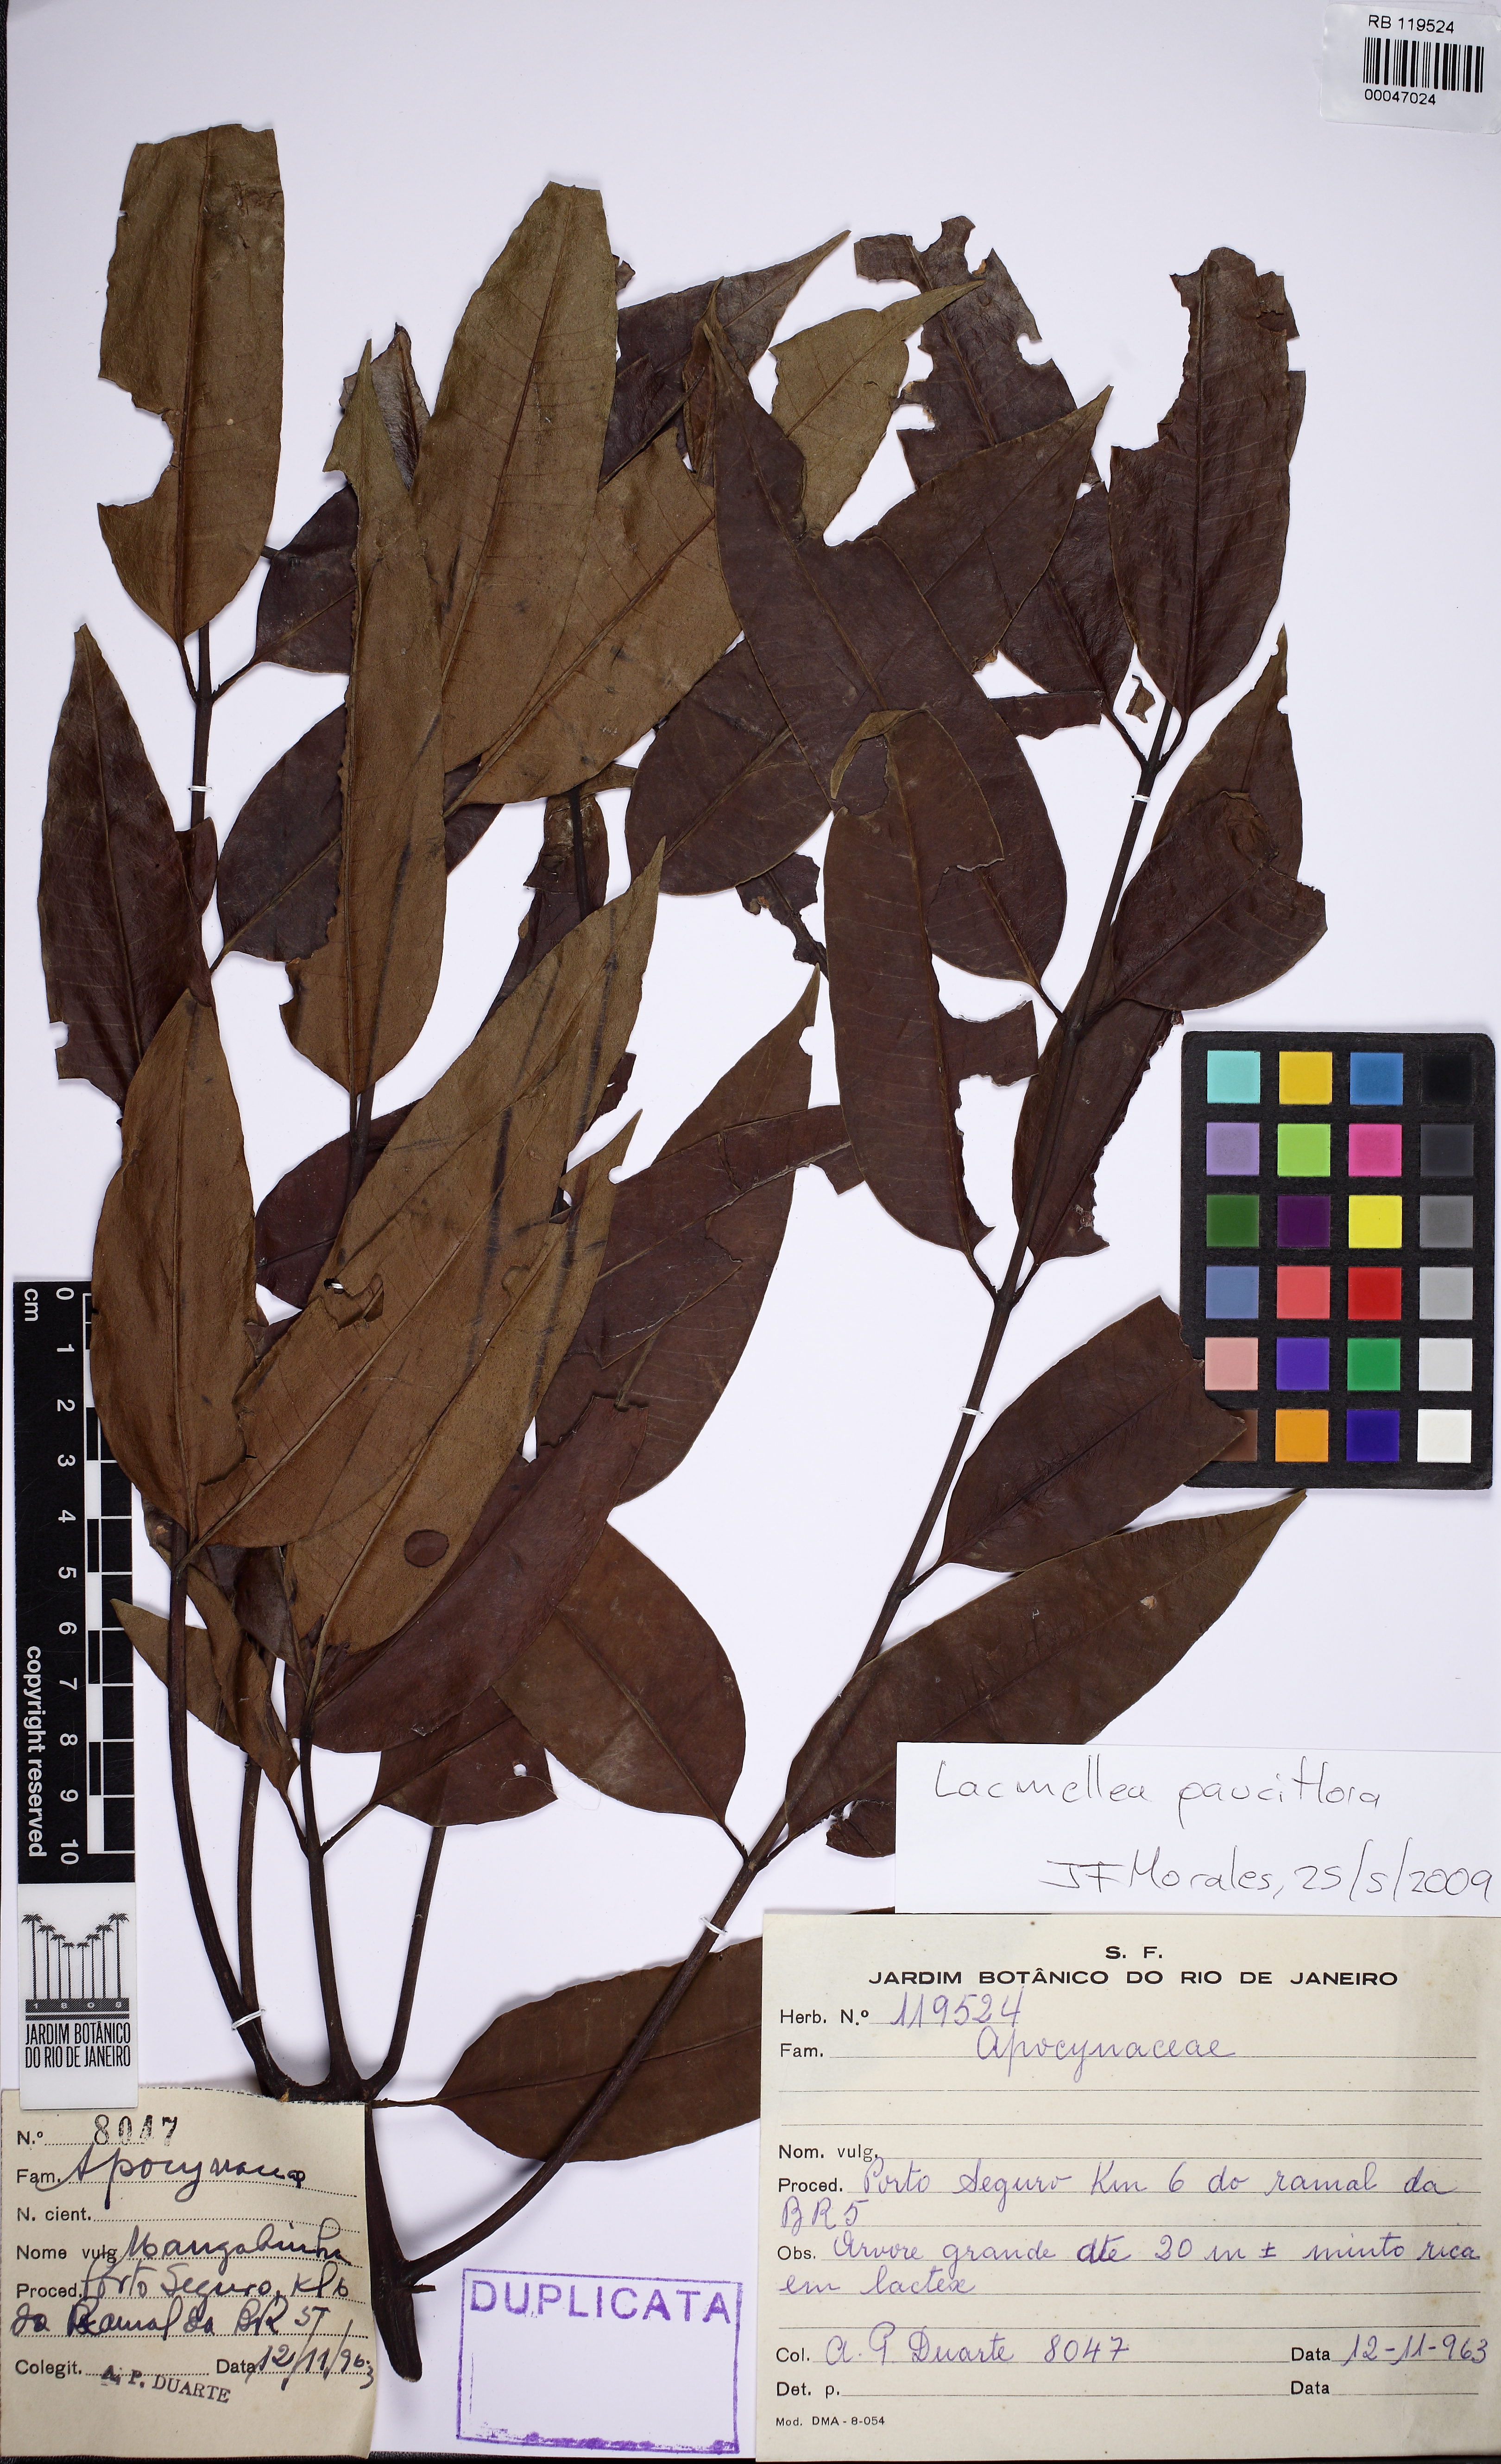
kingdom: Plantae
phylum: Tracheophyta
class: Magnoliopsida
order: Gentianales
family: Apocynaceae
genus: Lacmellea
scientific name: Lacmellea pauciflora
